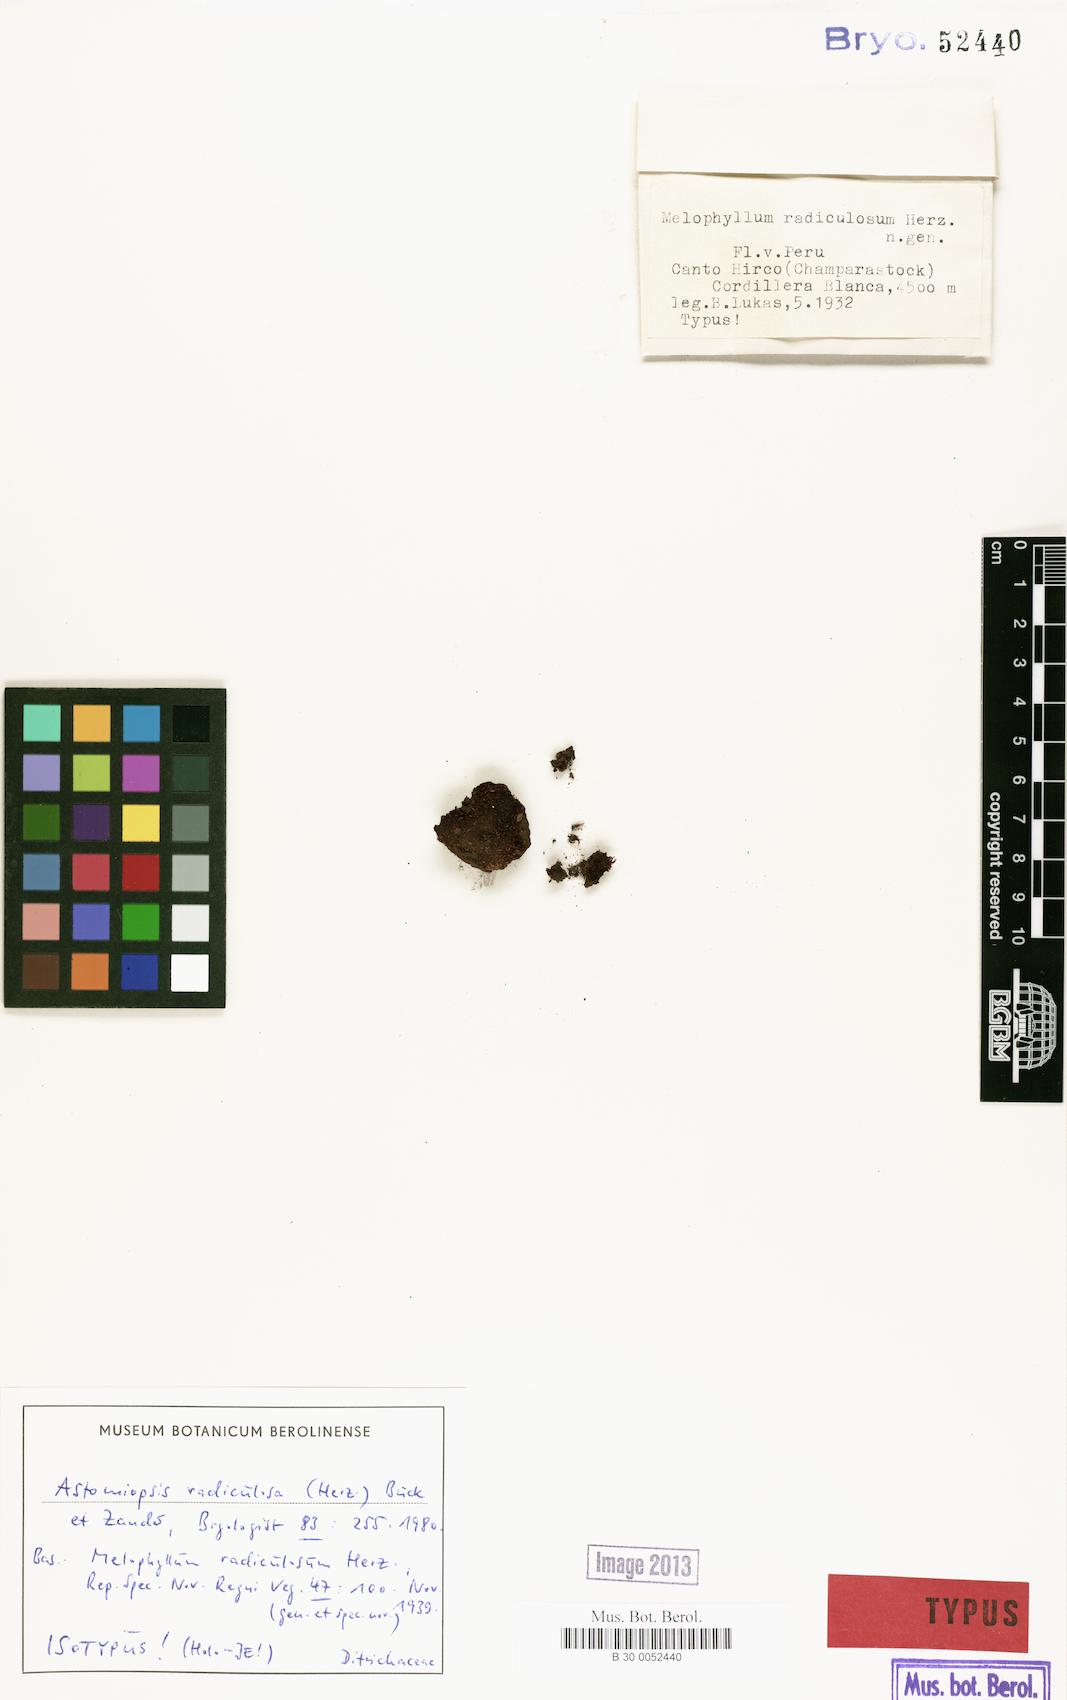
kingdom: Plantae
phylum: Bryophyta
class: Bryopsida
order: Dicranales
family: Ditrichaceae
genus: Bryomanginia
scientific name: Bryomanginia saint-pierrei
